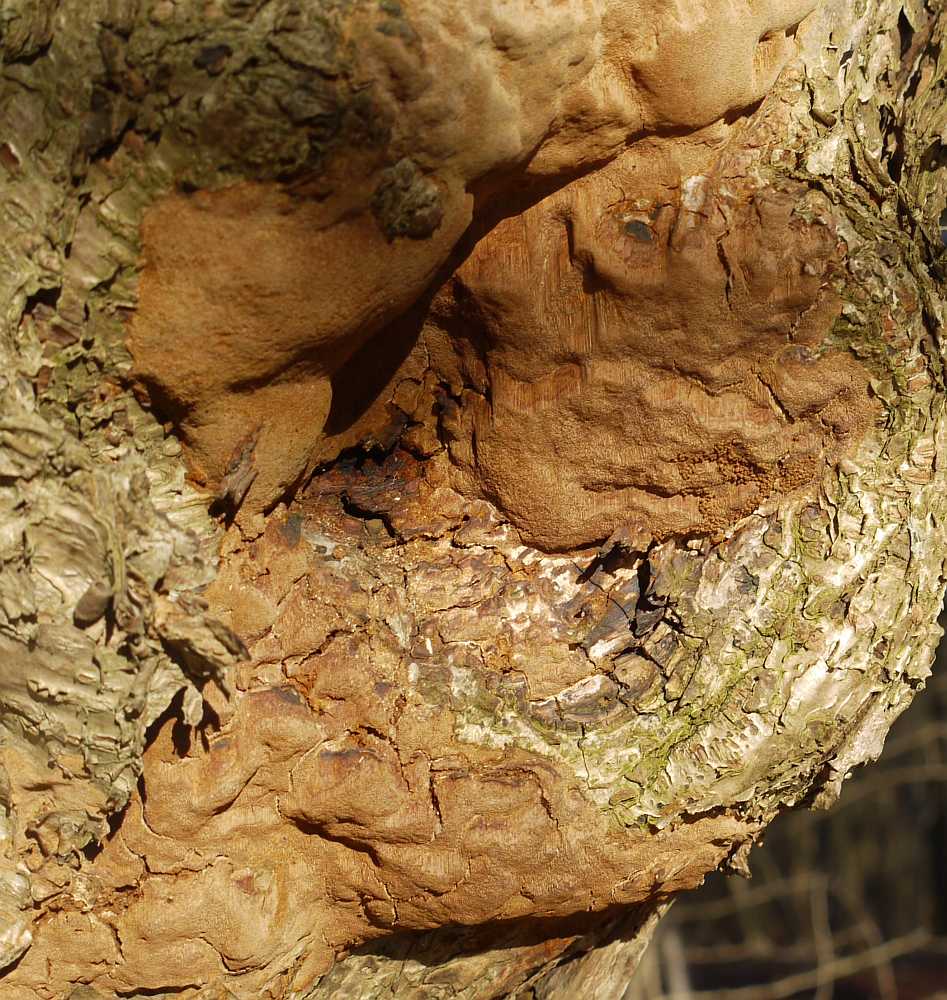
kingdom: Fungi
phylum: Basidiomycota
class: Agaricomycetes
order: Hymenochaetales
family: Hymenochaetaceae
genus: Fuscoporia
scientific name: Fuscoporia ferrea
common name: skorpe-ildporesvamp
